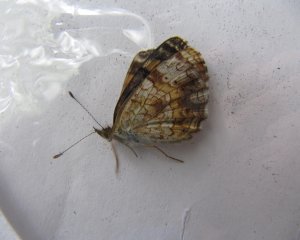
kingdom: Animalia
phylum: Arthropoda
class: Insecta
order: Lepidoptera
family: Nymphalidae
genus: Phyciodes
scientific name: Phyciodes tharos
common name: Northern Crescent
